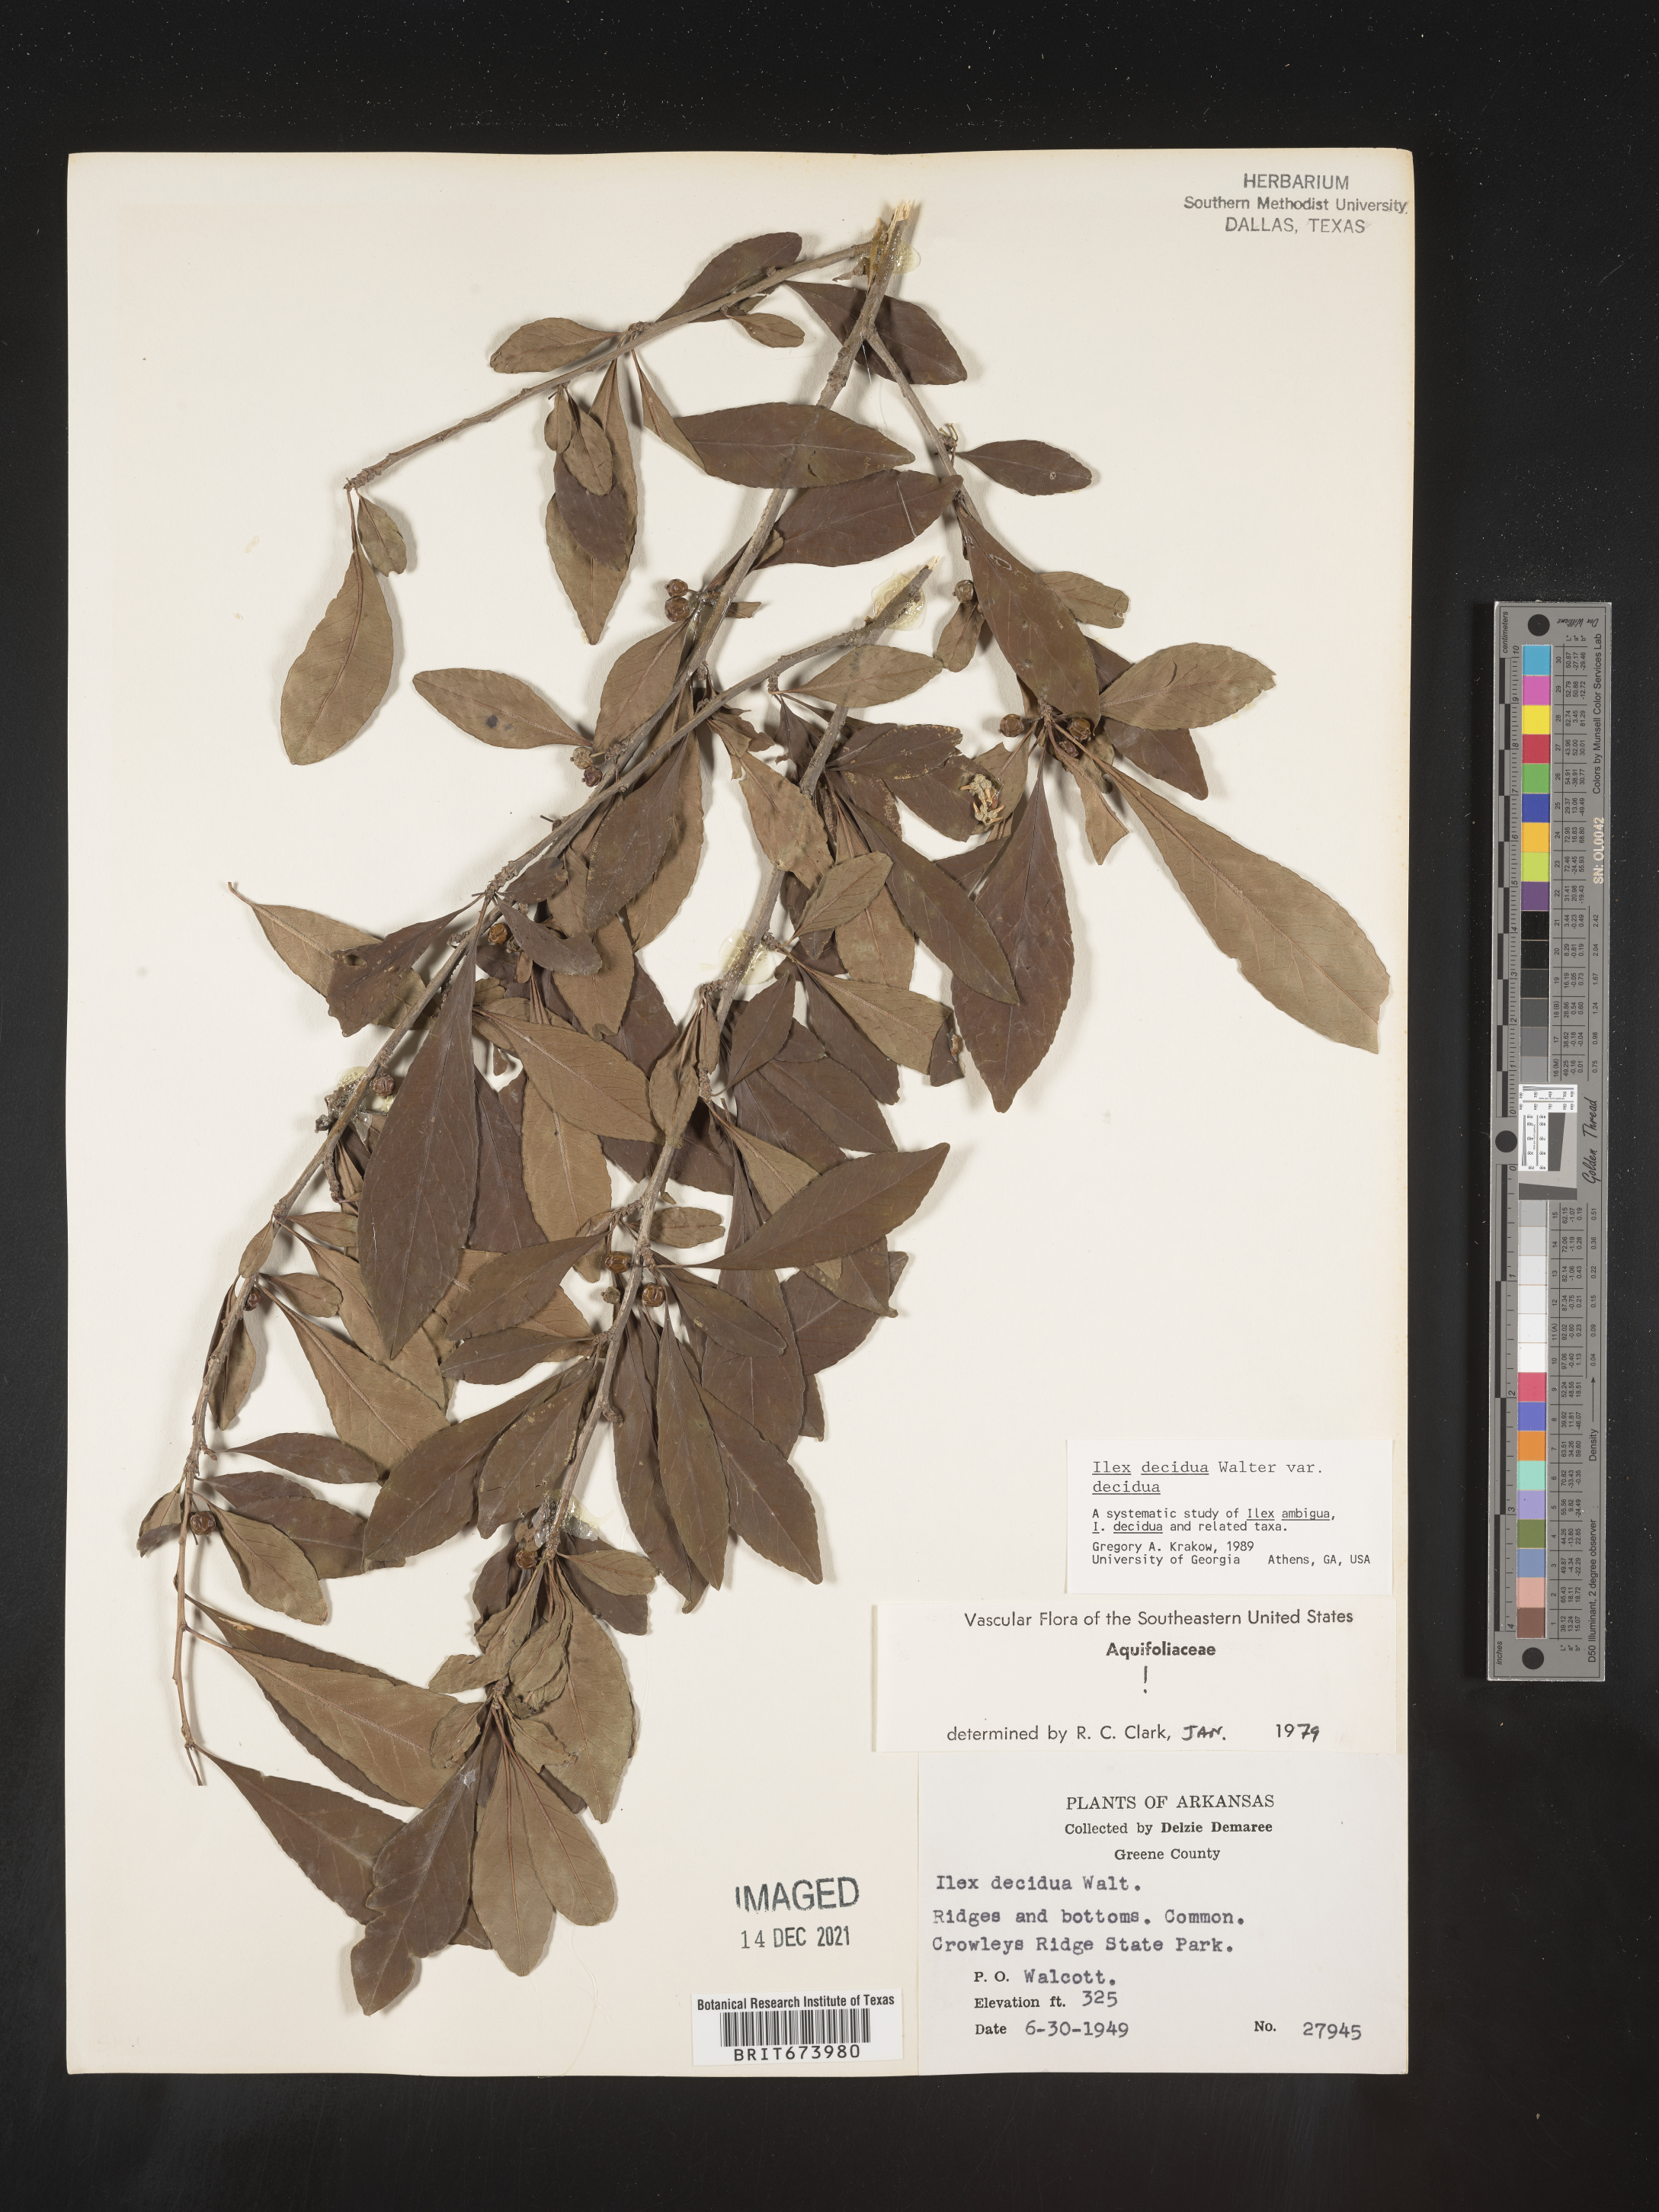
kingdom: Plantae
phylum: Tracheophyta
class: Magnoliopsida
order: Aquifoliales
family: Aquifoliaceae
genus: Ilex
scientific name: Ilex decidua
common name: Possum-haw
